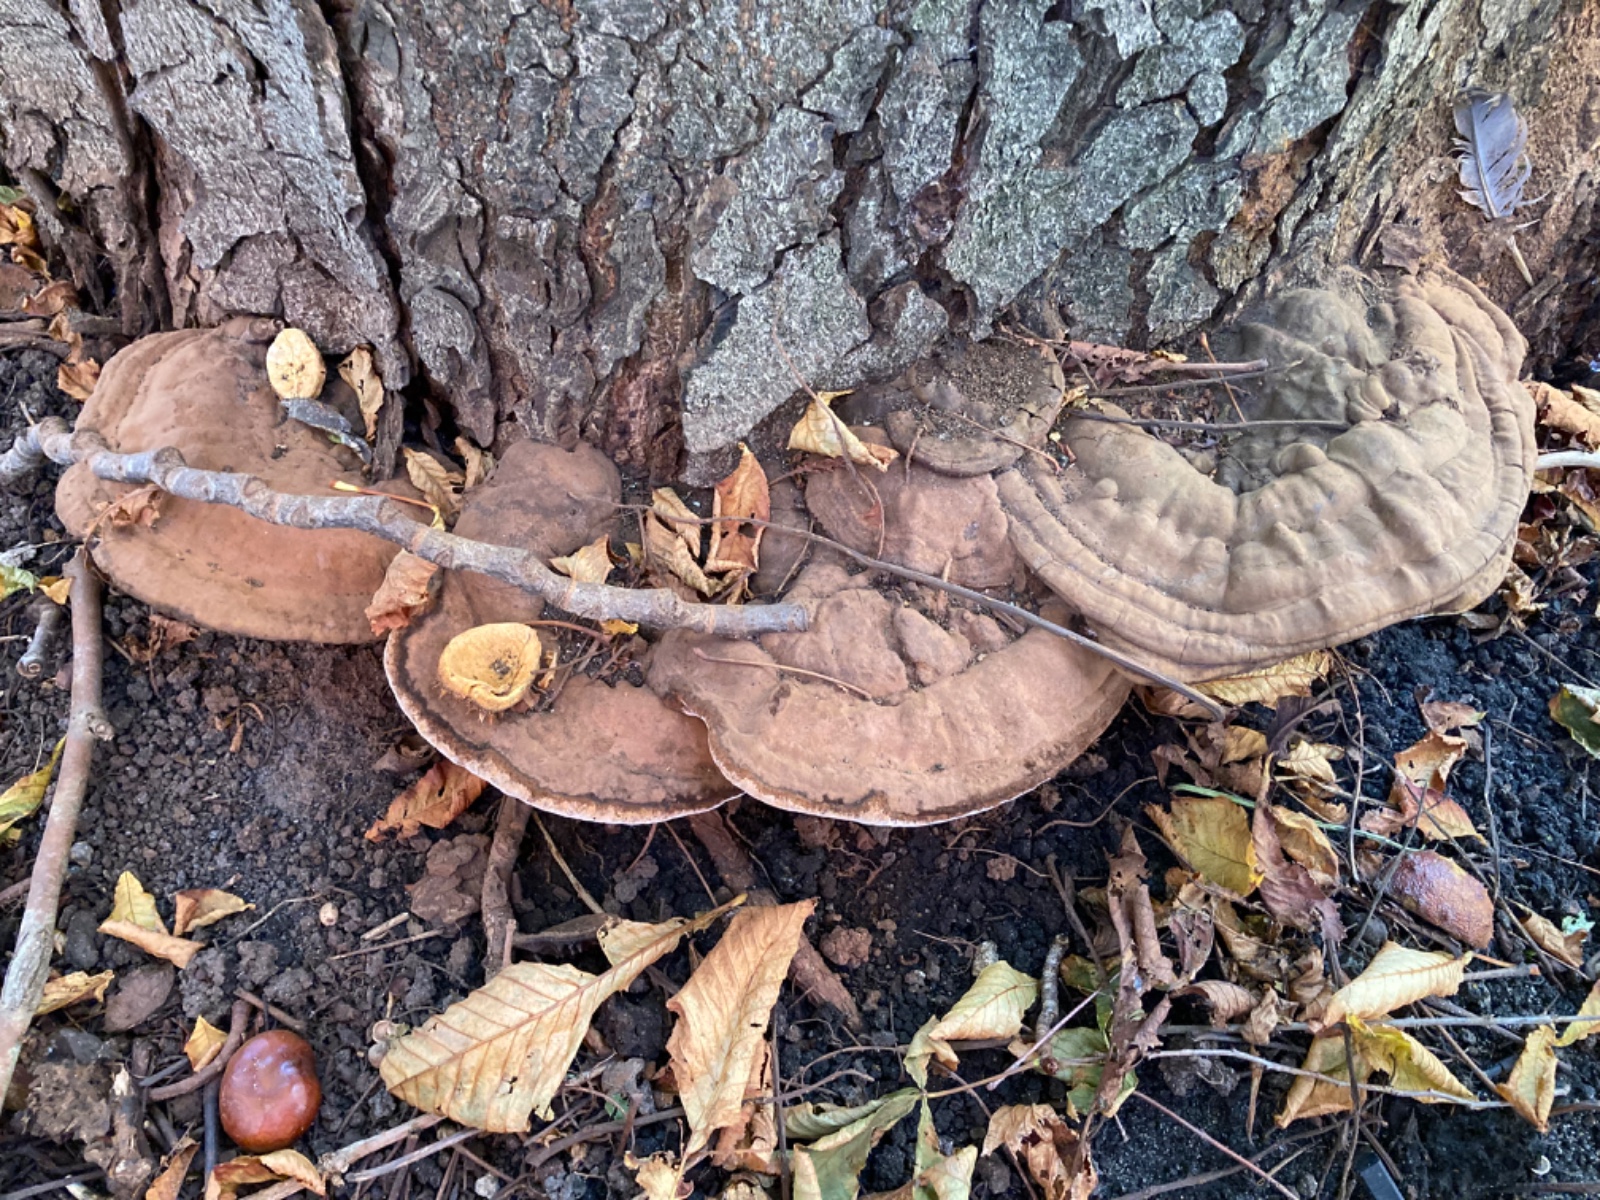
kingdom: Fungi
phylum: Basidiomycota
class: Agaricomycetes
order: Polyporales
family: Polyporaceae
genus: Ganoderma
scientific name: Ganoderma applanatum
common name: flad lakporesvamp
